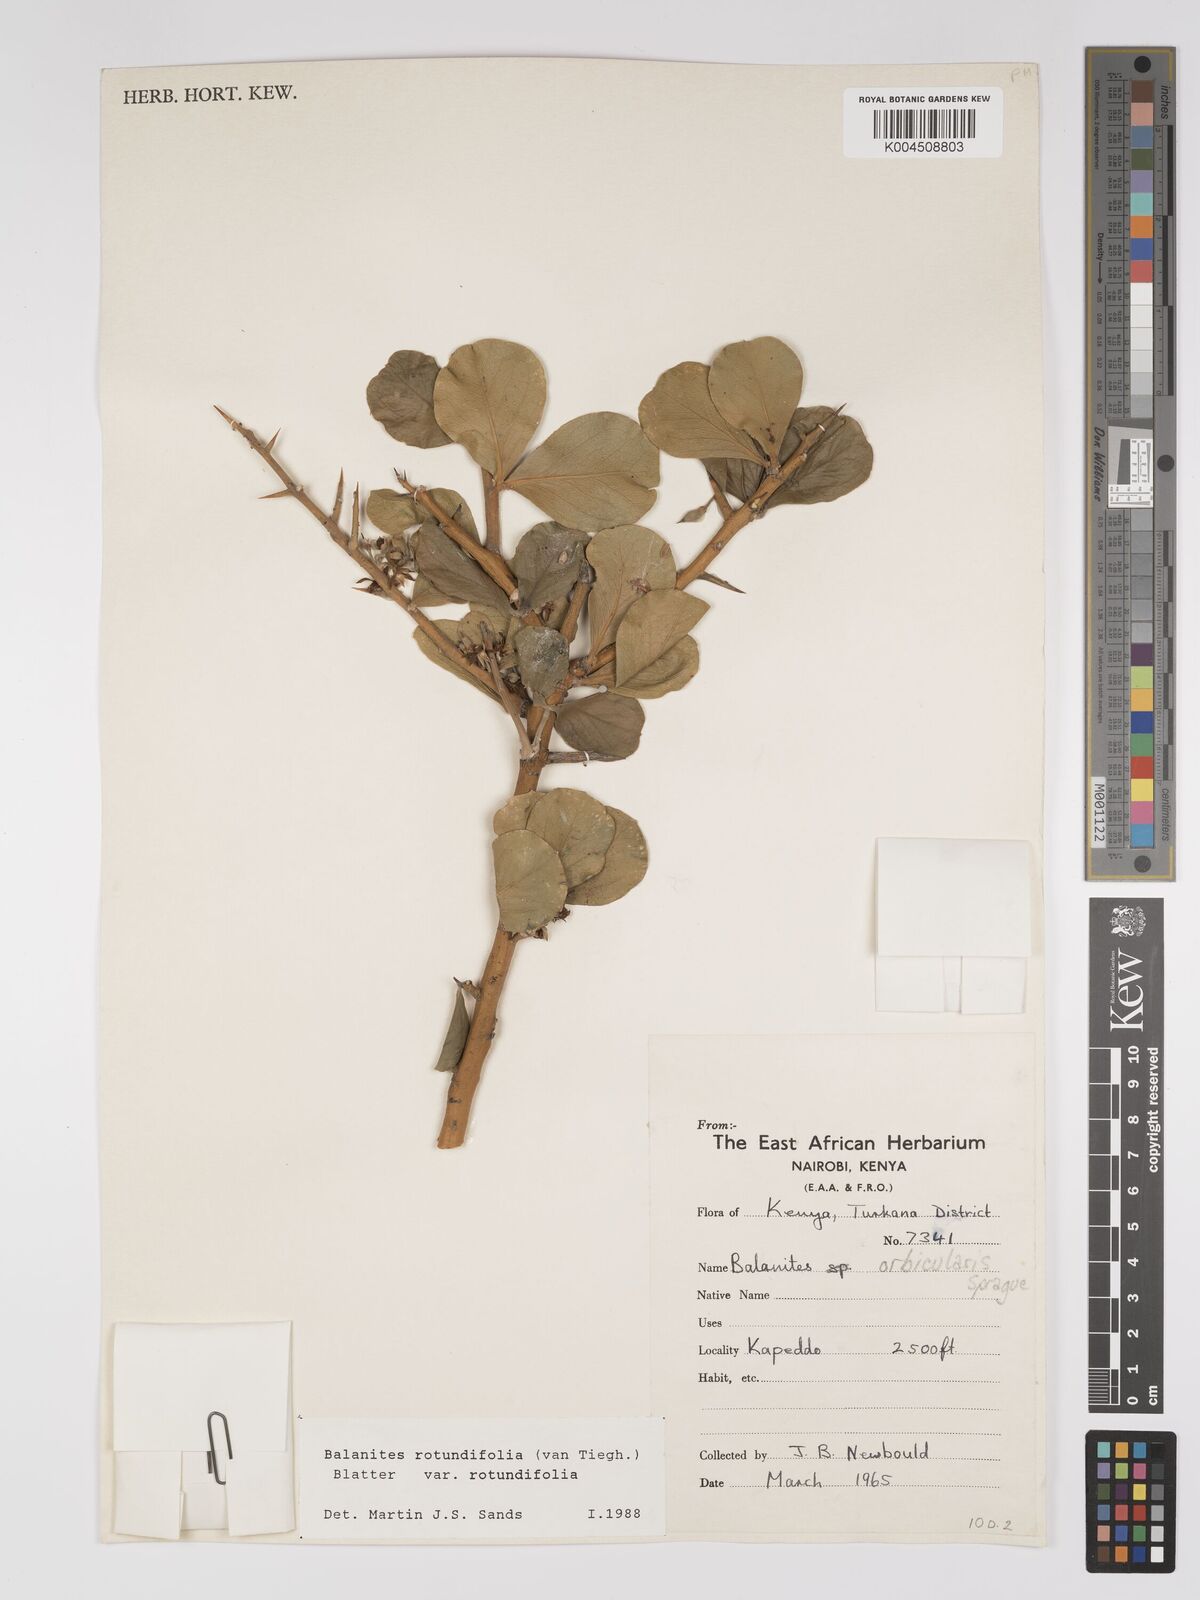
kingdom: Plantae
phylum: Tracheophyta
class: Magnoliopsida
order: Zygophyllales
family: Zygophyllaceae
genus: Balanites
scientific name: Balanites rotundifolia
